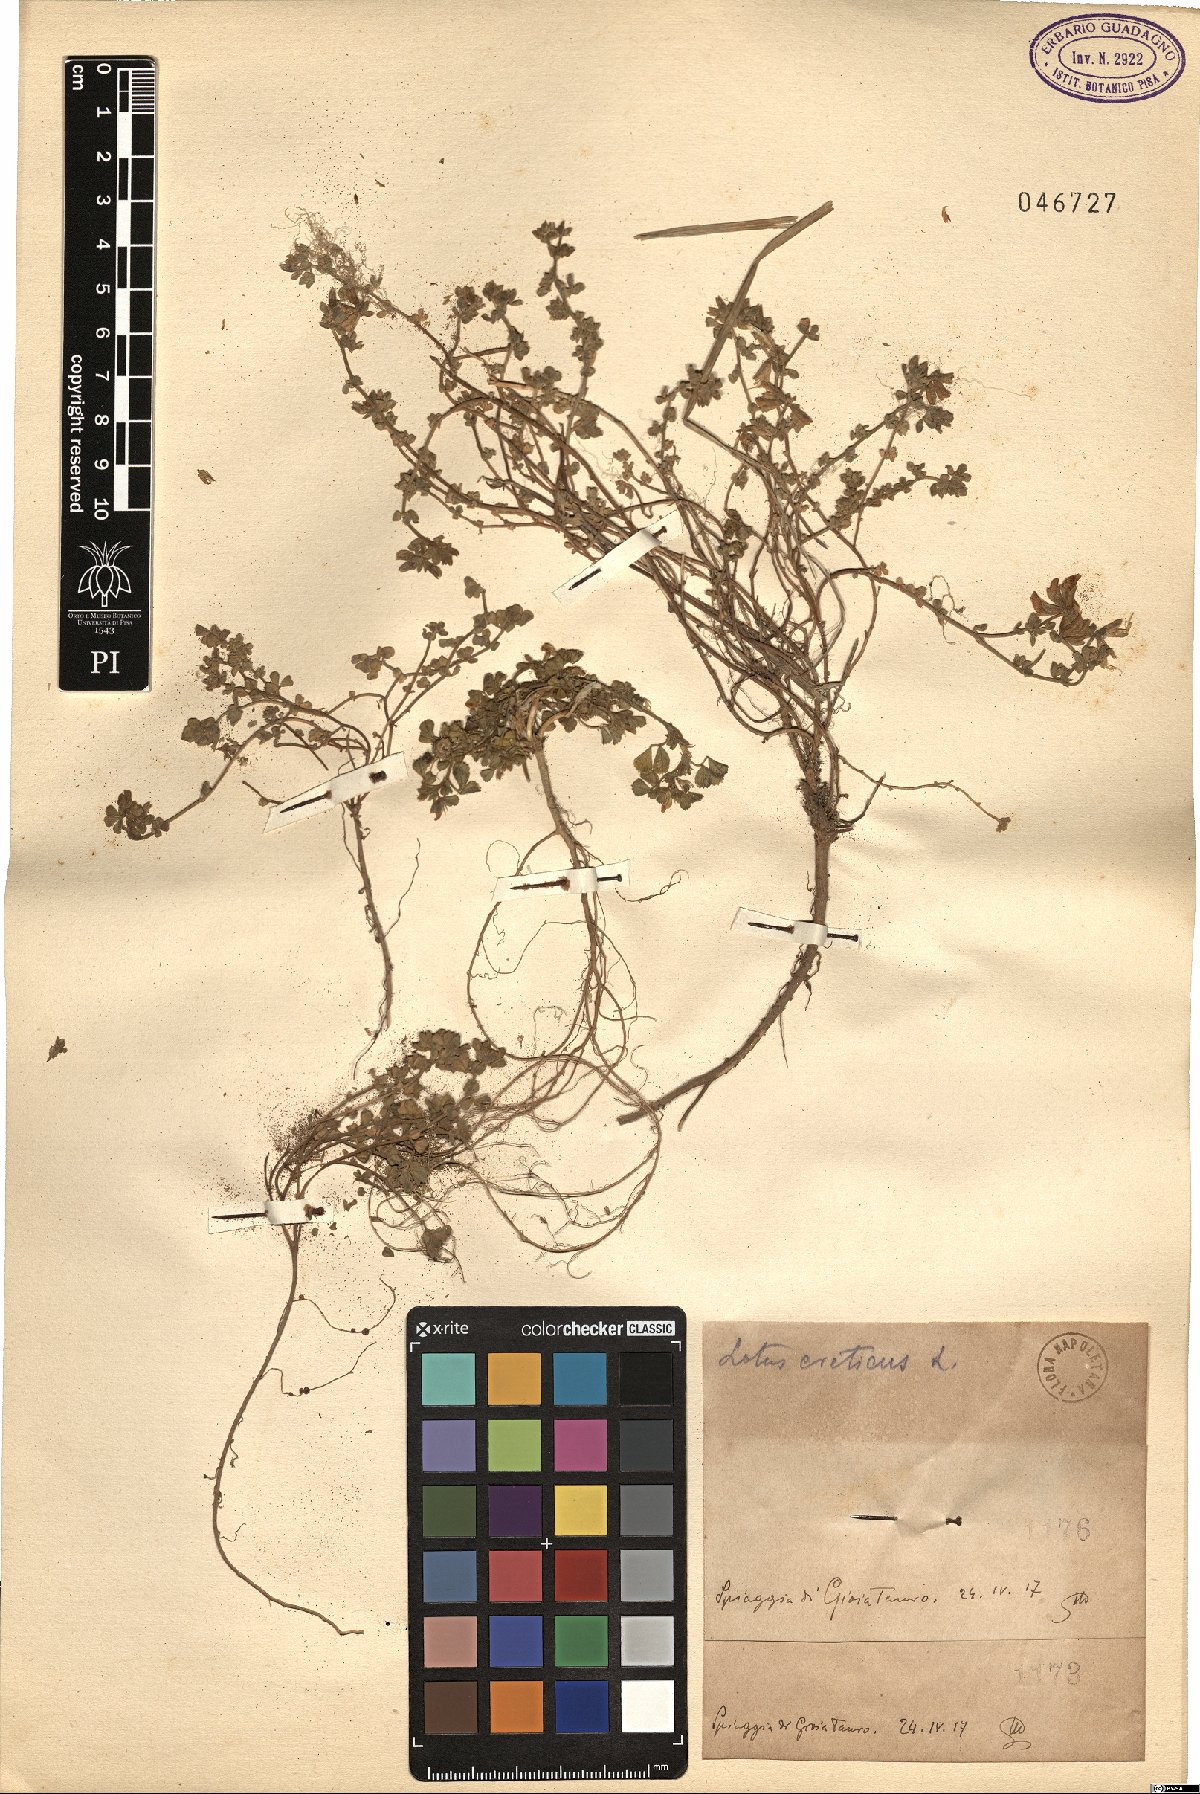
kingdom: Plantae
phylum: Tracheophyta
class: Magnoliopsida
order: Fabales
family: Fabaceae
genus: Lotus
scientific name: Lotus creticus
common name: Cretan bird's-foot trefoil
